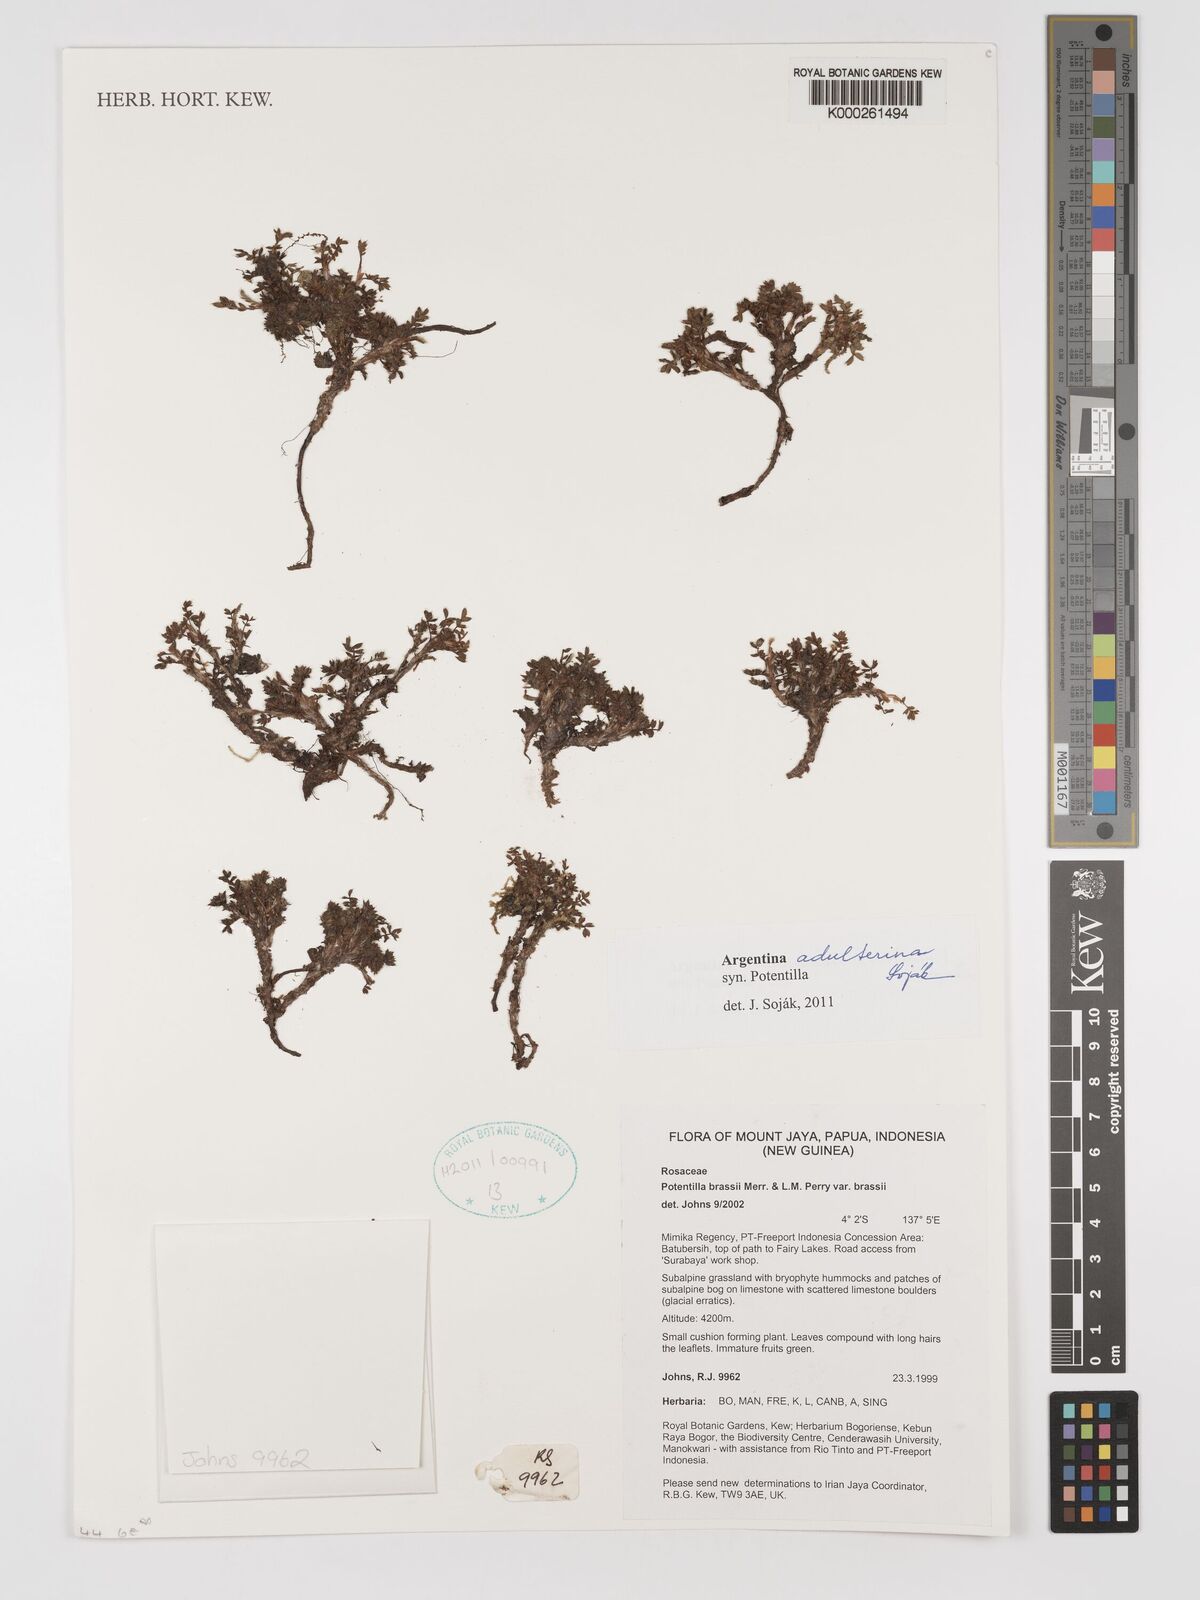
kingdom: Plantae
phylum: Tracheophyta
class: Magnoliopsida
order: Rosales
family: Rosaceae
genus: Potentilla
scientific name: Potentilla
